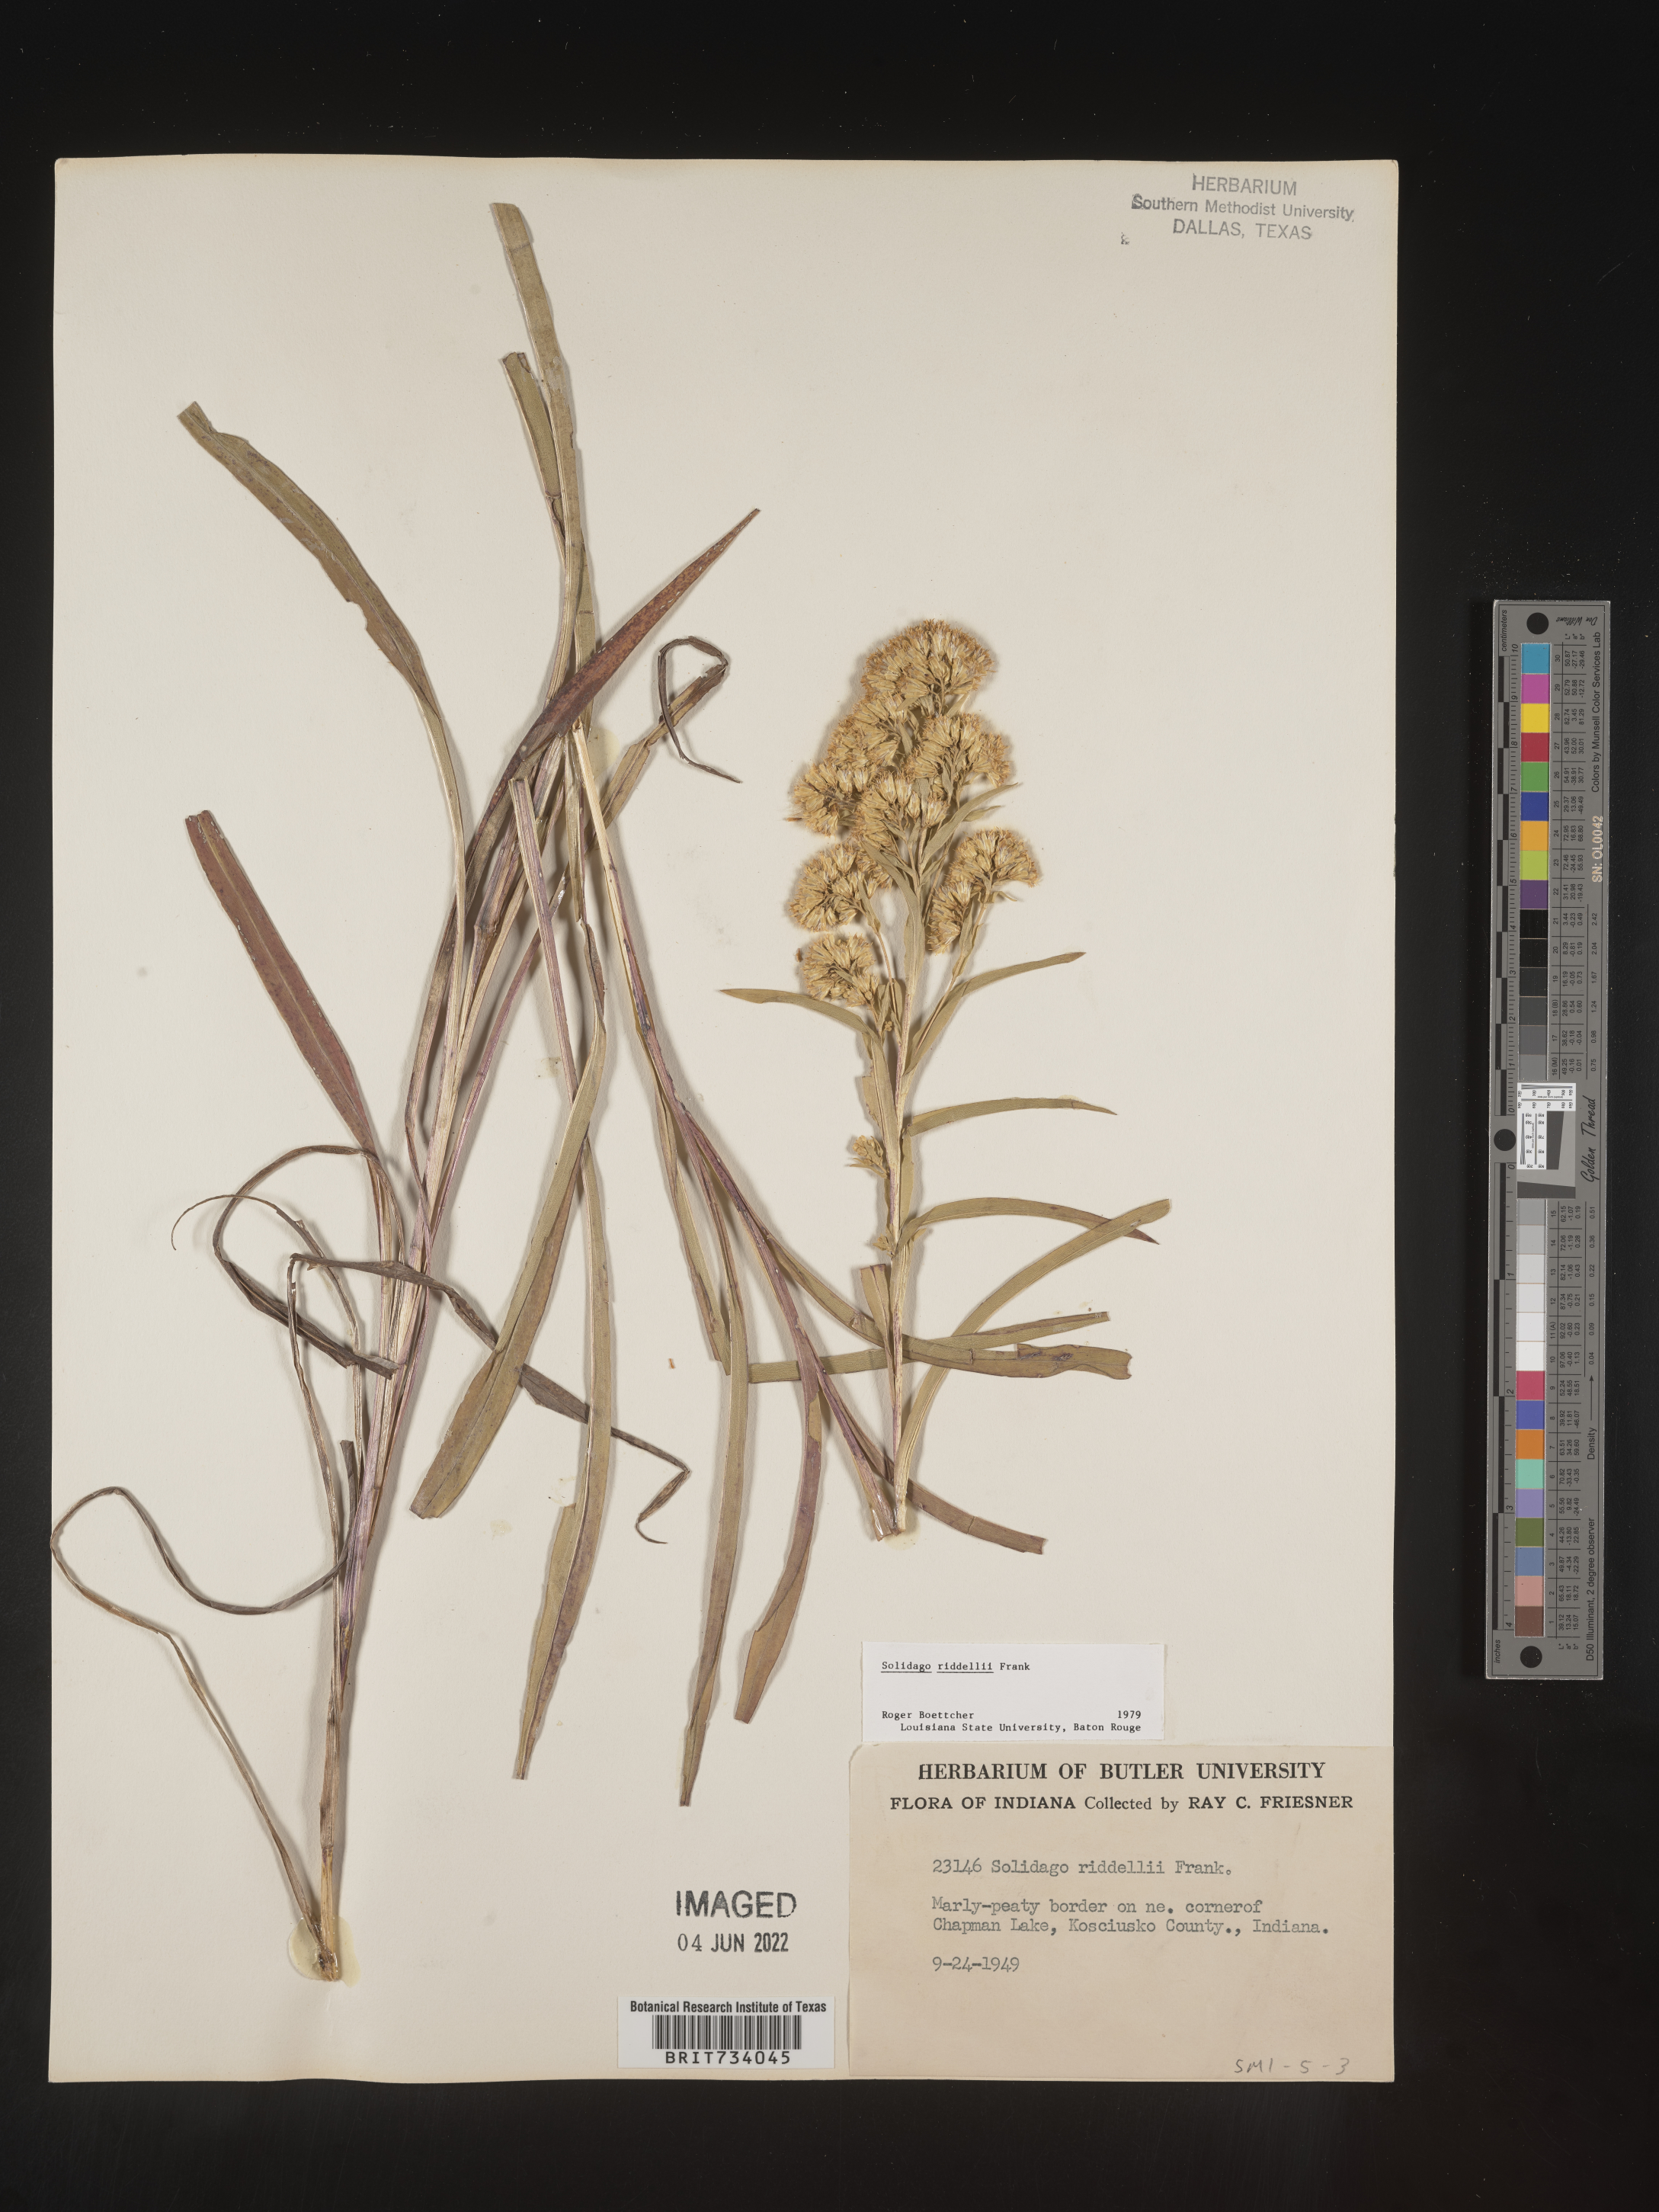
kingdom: Plantae
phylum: Tracheophyta
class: Magnoliopsida
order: Asterales
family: Asteraceae
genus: Solidago
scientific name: Solidago riddellii
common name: Riddell's goldenrod
